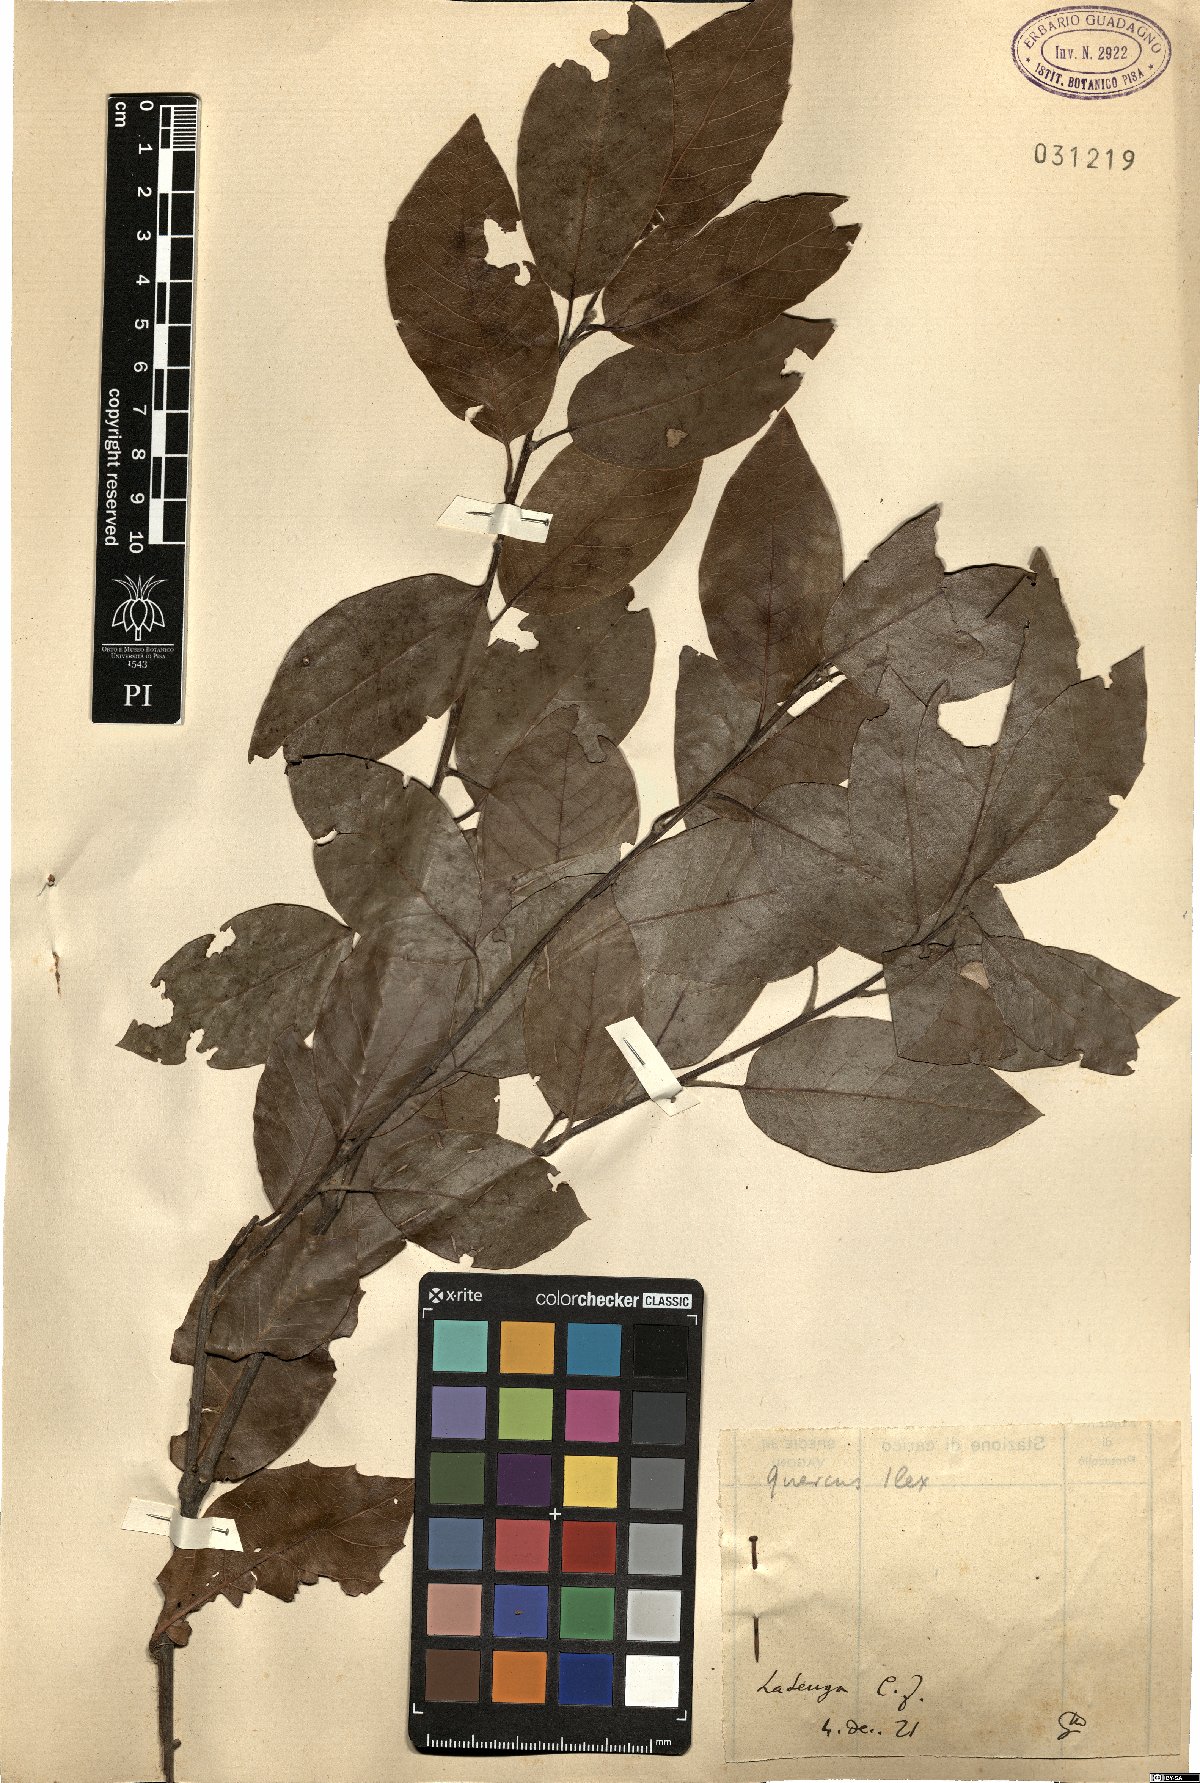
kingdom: Plantae
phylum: Tracheophyta
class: Magnoliopsida
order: Fagales
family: Fagaceae
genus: Quercus
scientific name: Quercus ilex
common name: Evergreen oak
